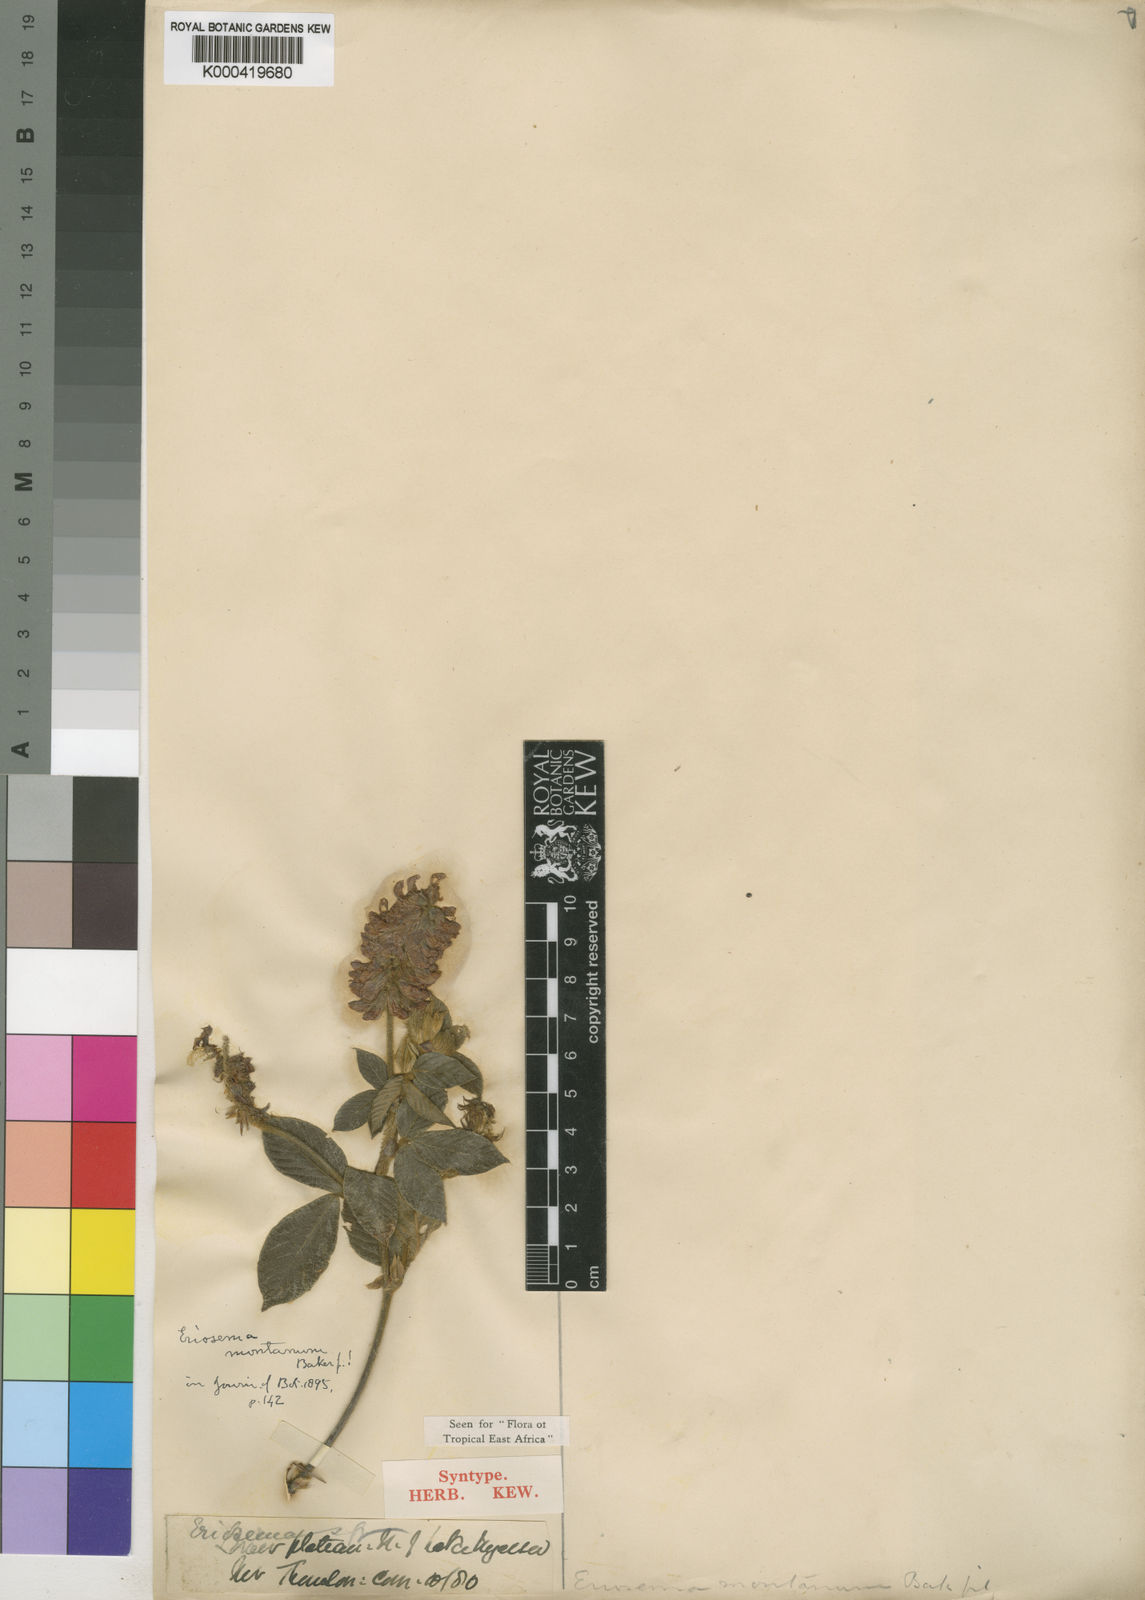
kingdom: Plantae
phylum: Tracheophyta
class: Magnoliopsida
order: Fabales
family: Fabaceae
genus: Eriosema
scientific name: Eriosema montanum
